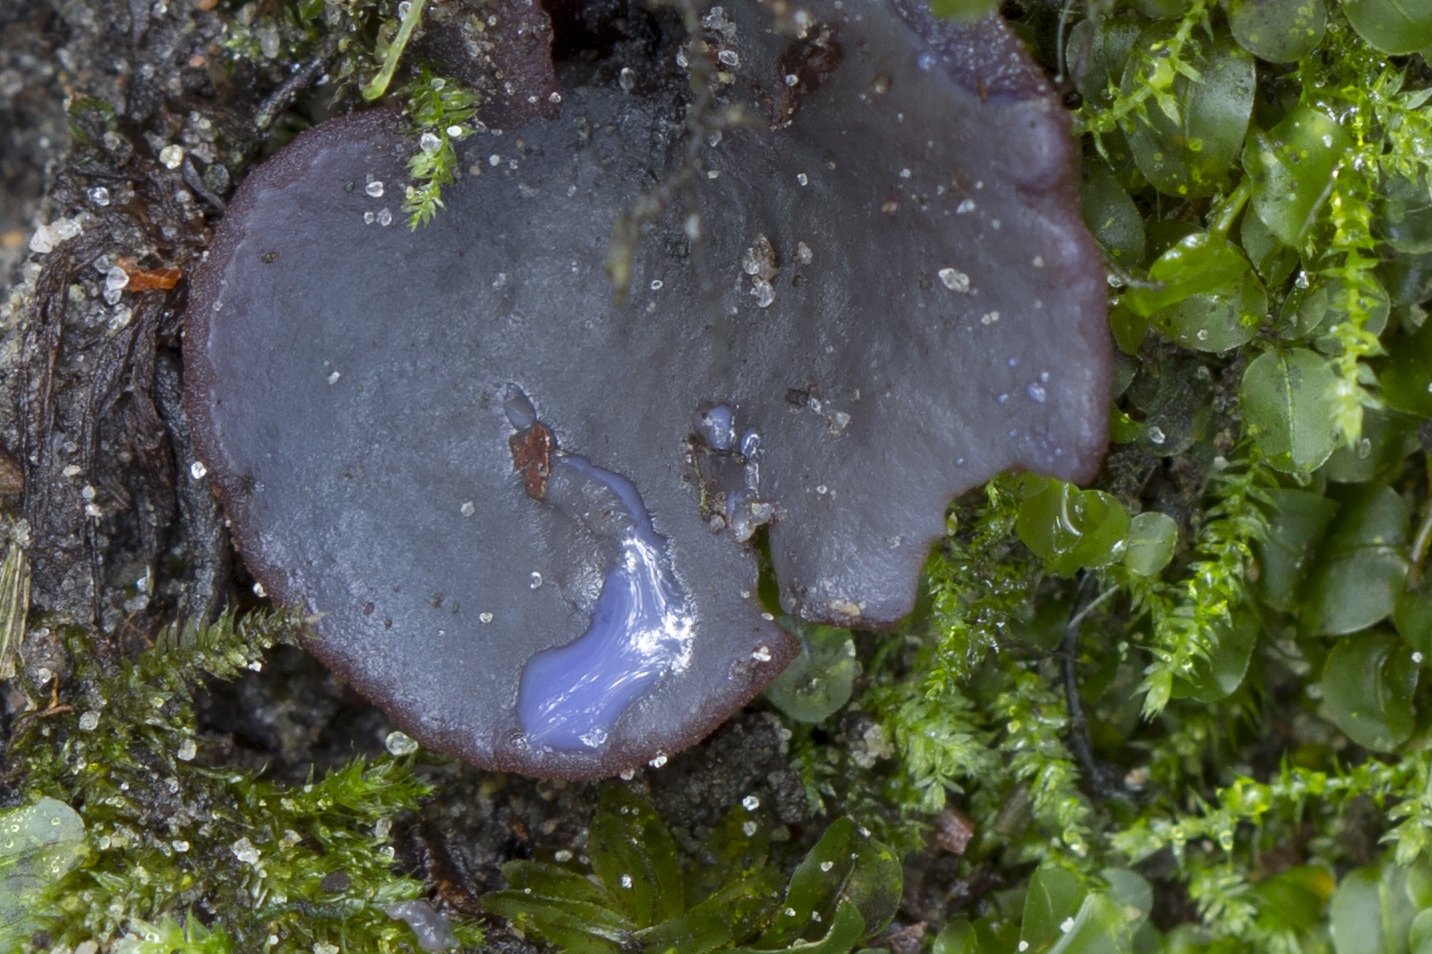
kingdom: Fungi
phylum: Ascomycota
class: Pezizomycetes
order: Pezizales
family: Pezizaceae
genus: Peziza
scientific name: Peziza saniosa
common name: blåmælket bægersvamp
